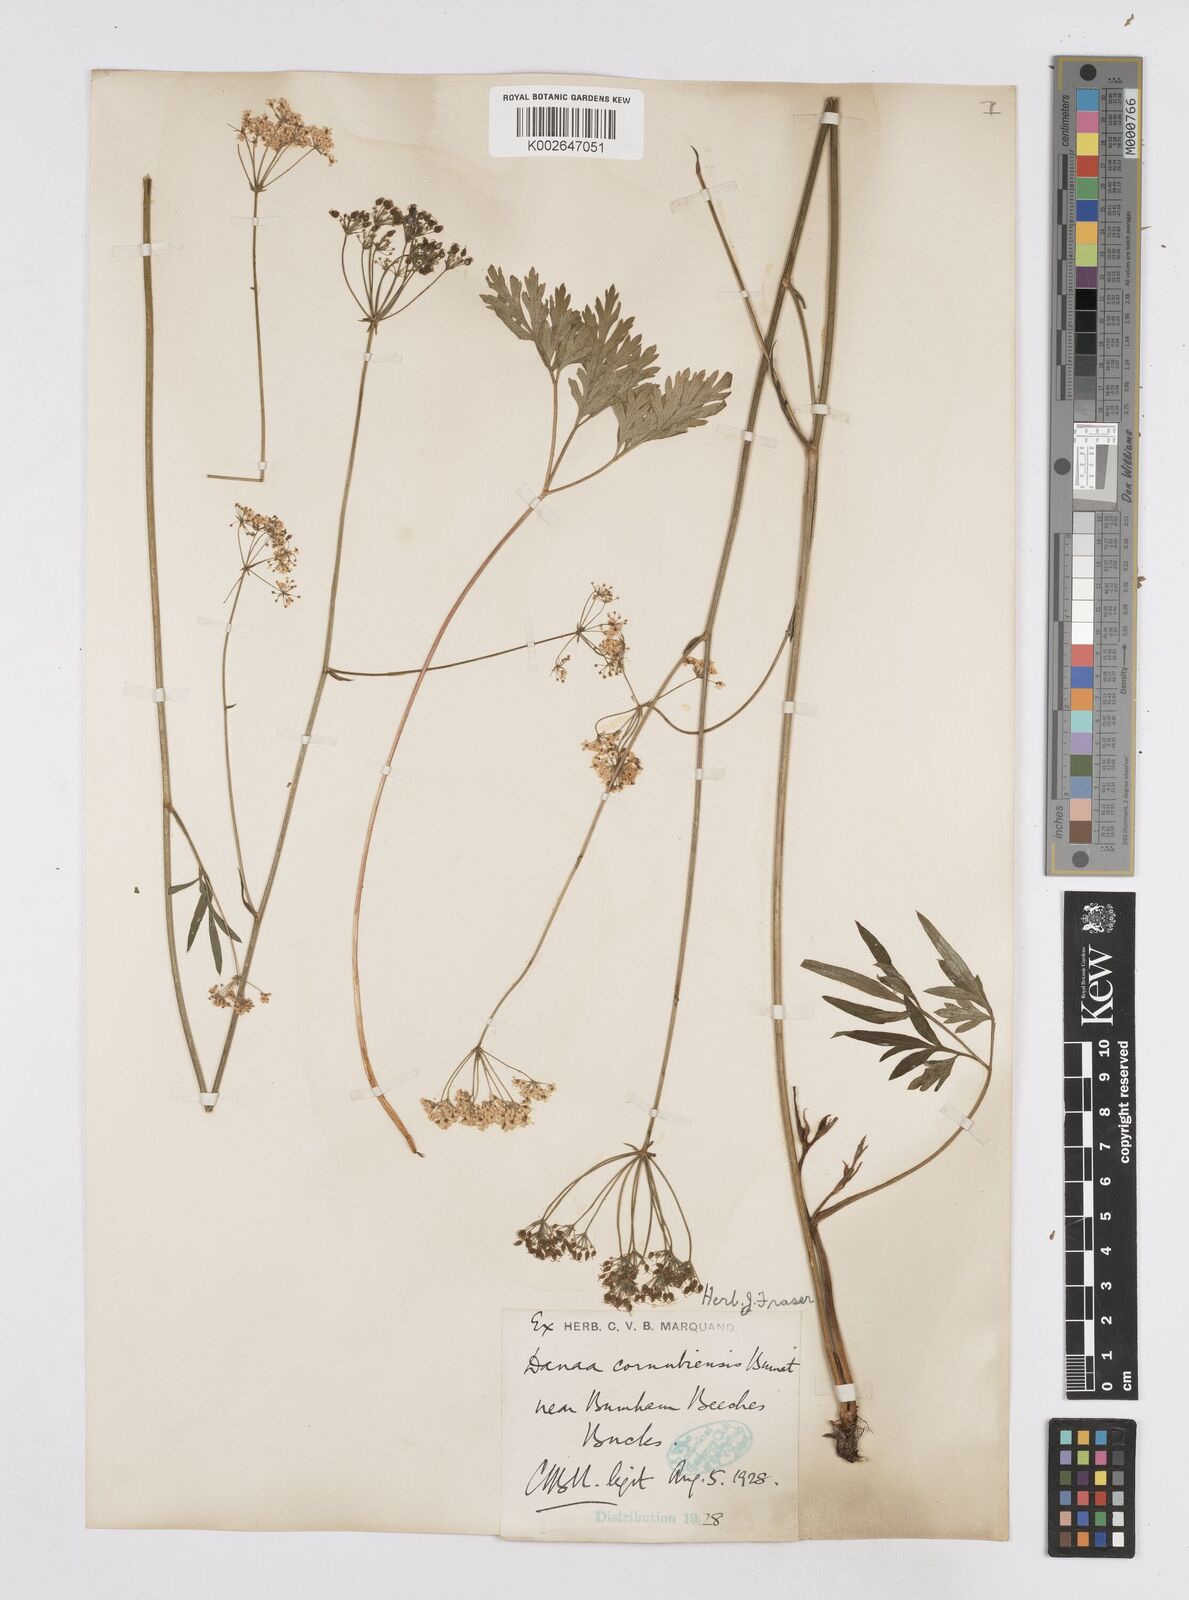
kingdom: Plantae
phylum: Tracheophyta
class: Magnoliopsida
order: Apiales
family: Apiaceae
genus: Physospermum
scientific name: Physospermum cornubiense
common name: Bladderseed
